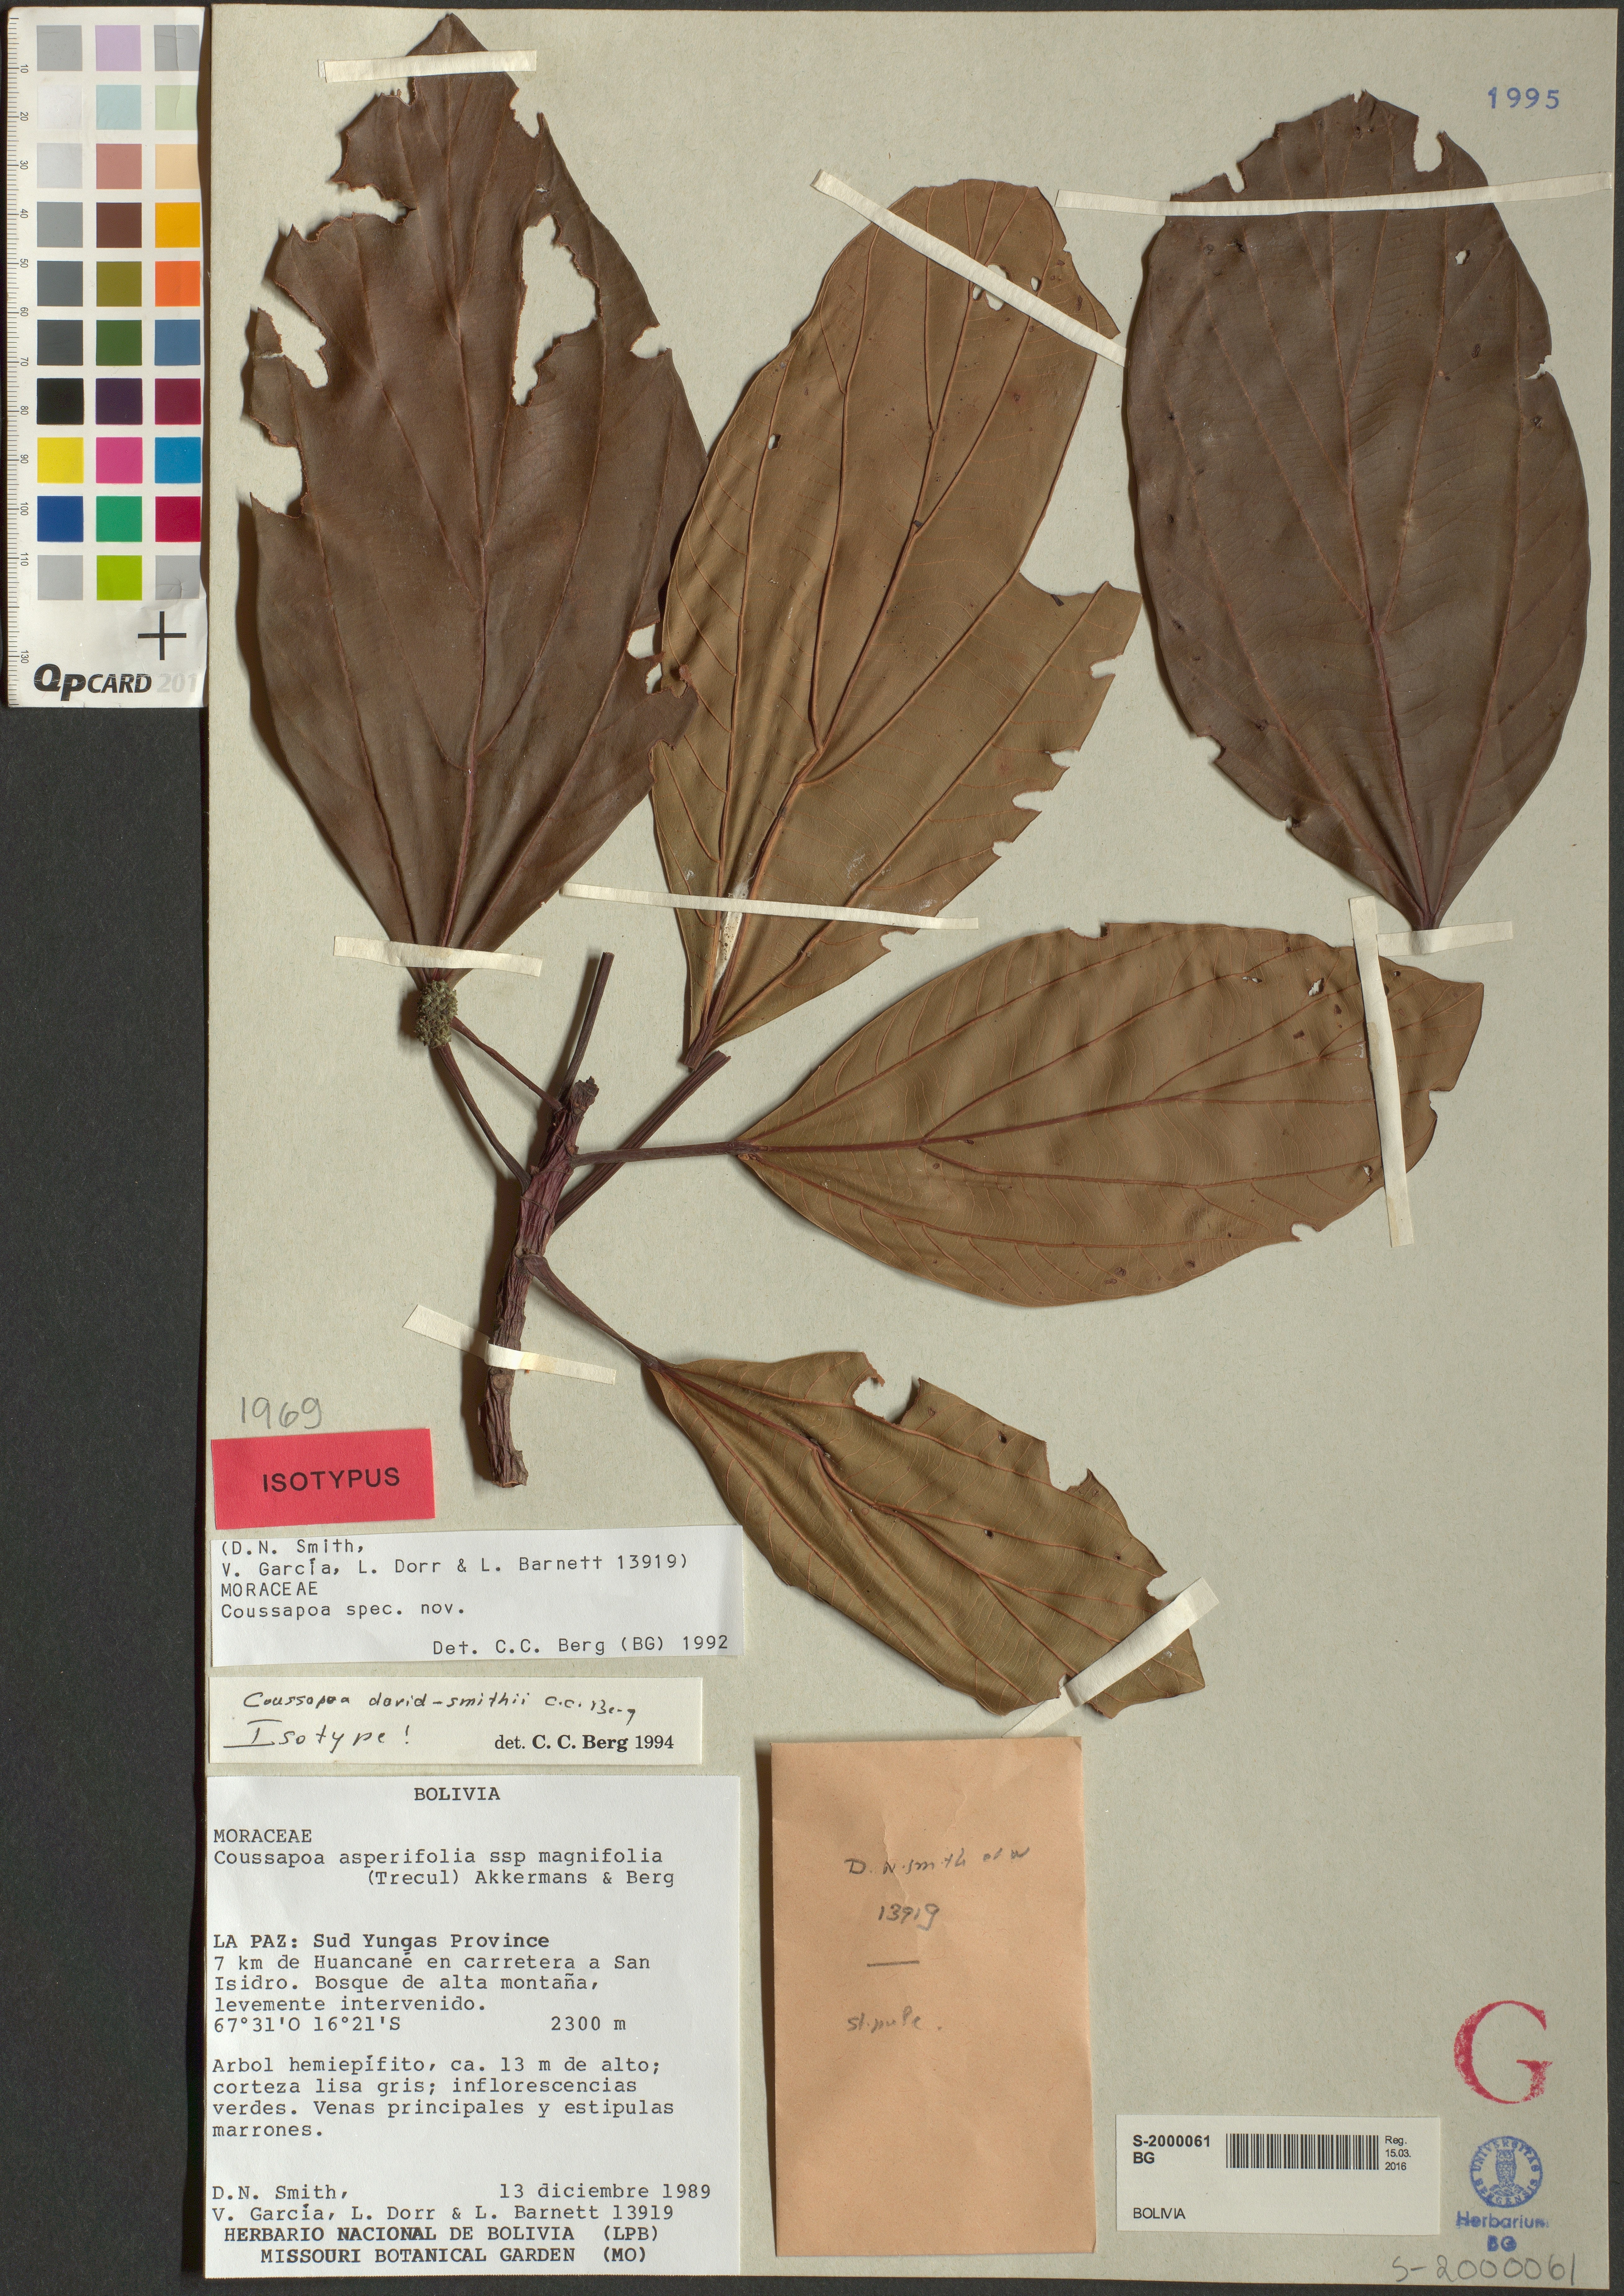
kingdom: Plantae
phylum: Tracheophyta
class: Magnoliopsida
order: Rosales
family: Urticaceae
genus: Coussapoa
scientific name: Coussapoa david-smithii
